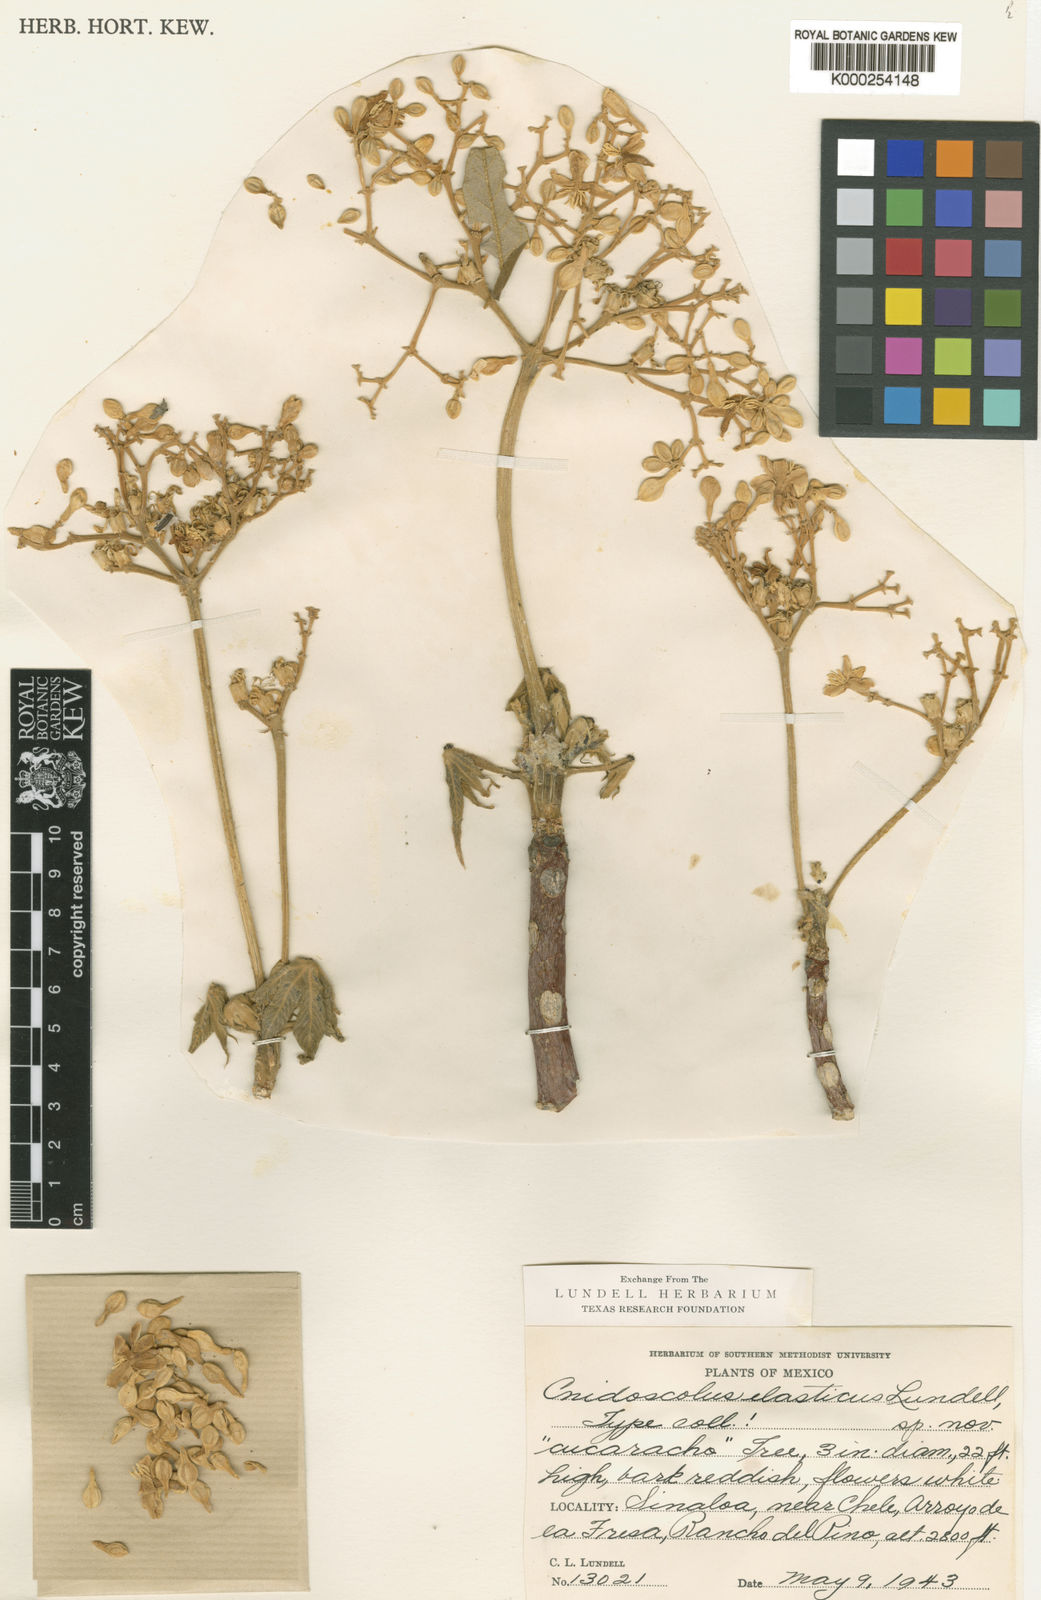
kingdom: Plantae
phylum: Tracheophyta
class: Magnoliopsida
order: Malpighiales
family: Euphorbiaceae
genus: Cnidoscolus
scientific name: Cnidoscolus elasticus
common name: Chilte
